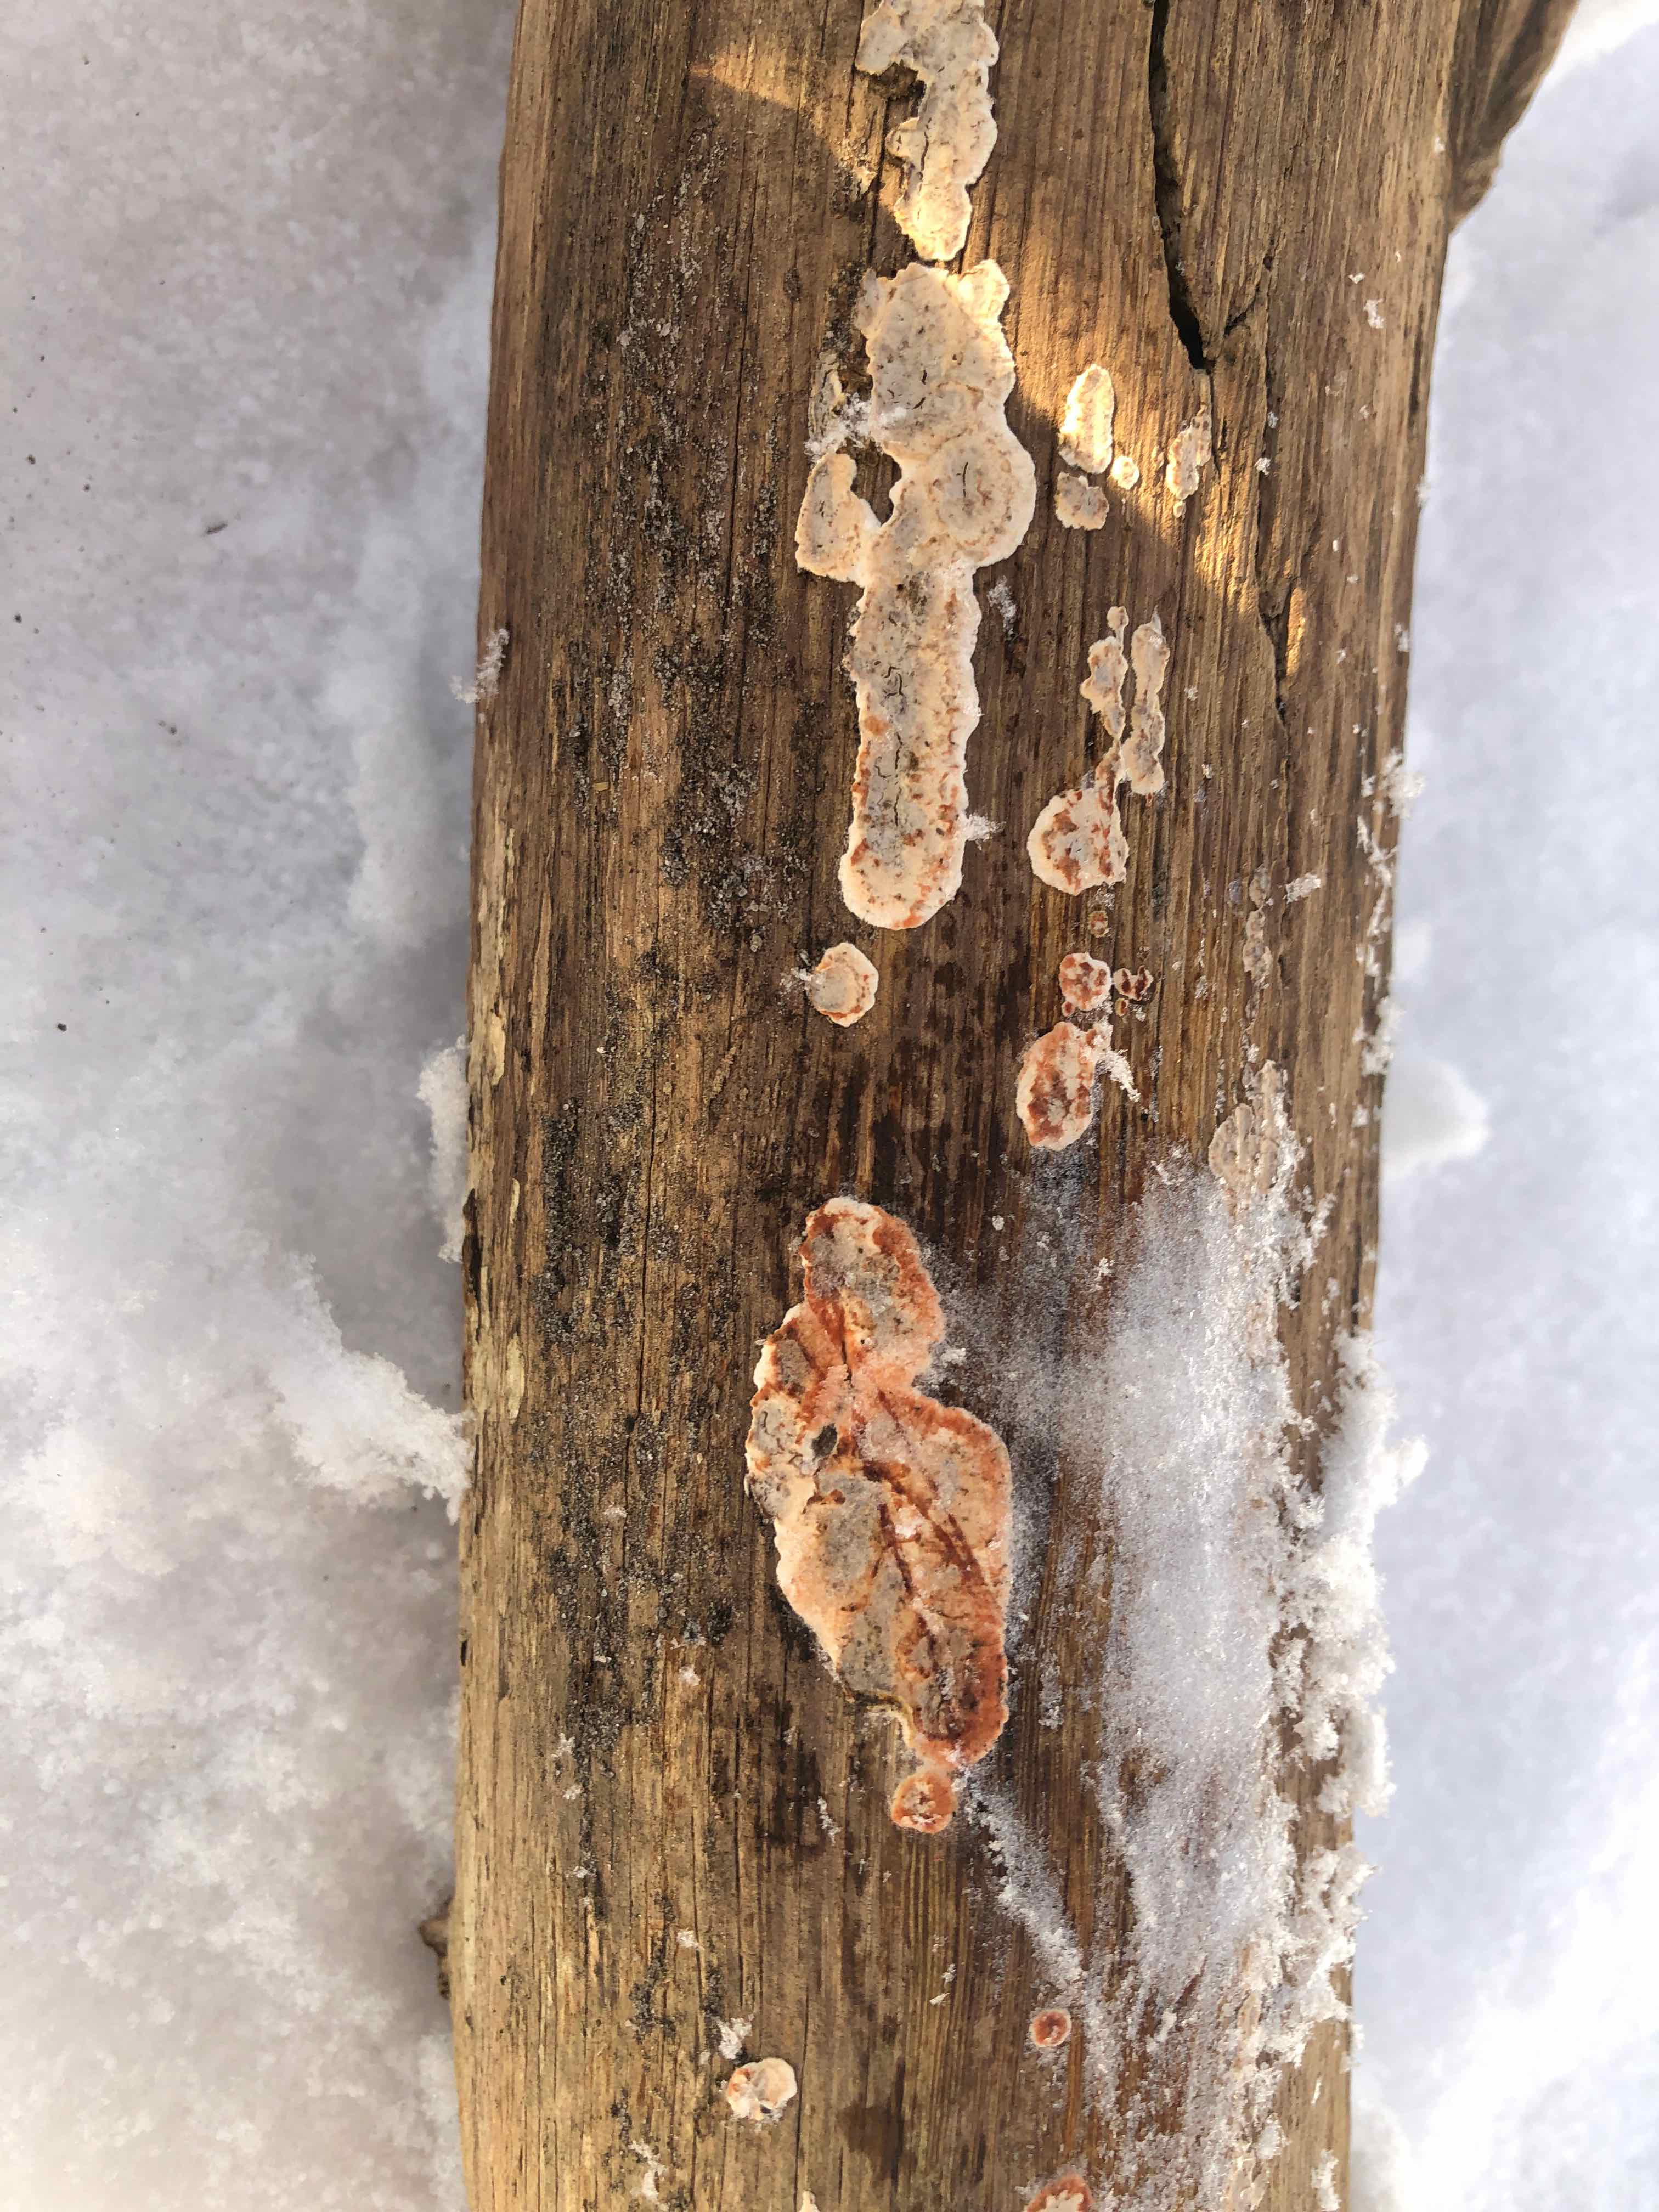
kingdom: Fungi
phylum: Basidiomycota
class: Agaricomycetes
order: Russulales
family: Stereaceae
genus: Stereum
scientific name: Stereum sanguinolentum
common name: blødende lædersvamp
